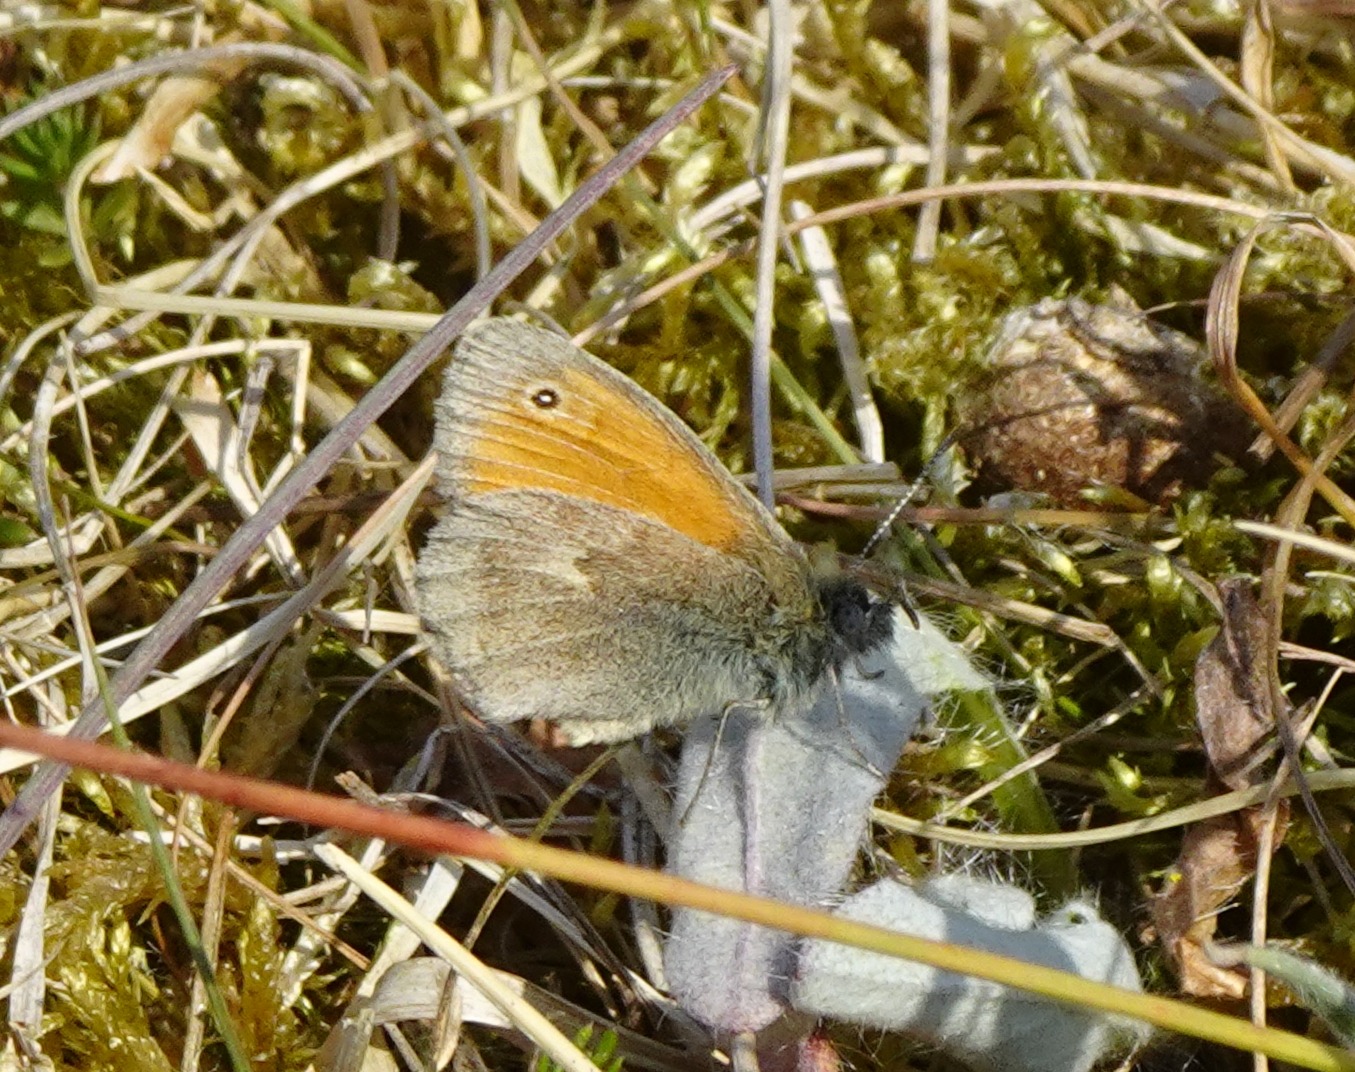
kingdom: Animalia
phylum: Arthropoda
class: Insecta
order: Lepidoptera
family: Nymphalidae
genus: Coenonympha
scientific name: Coenonympha pamphilus
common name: Okkergul randøje
